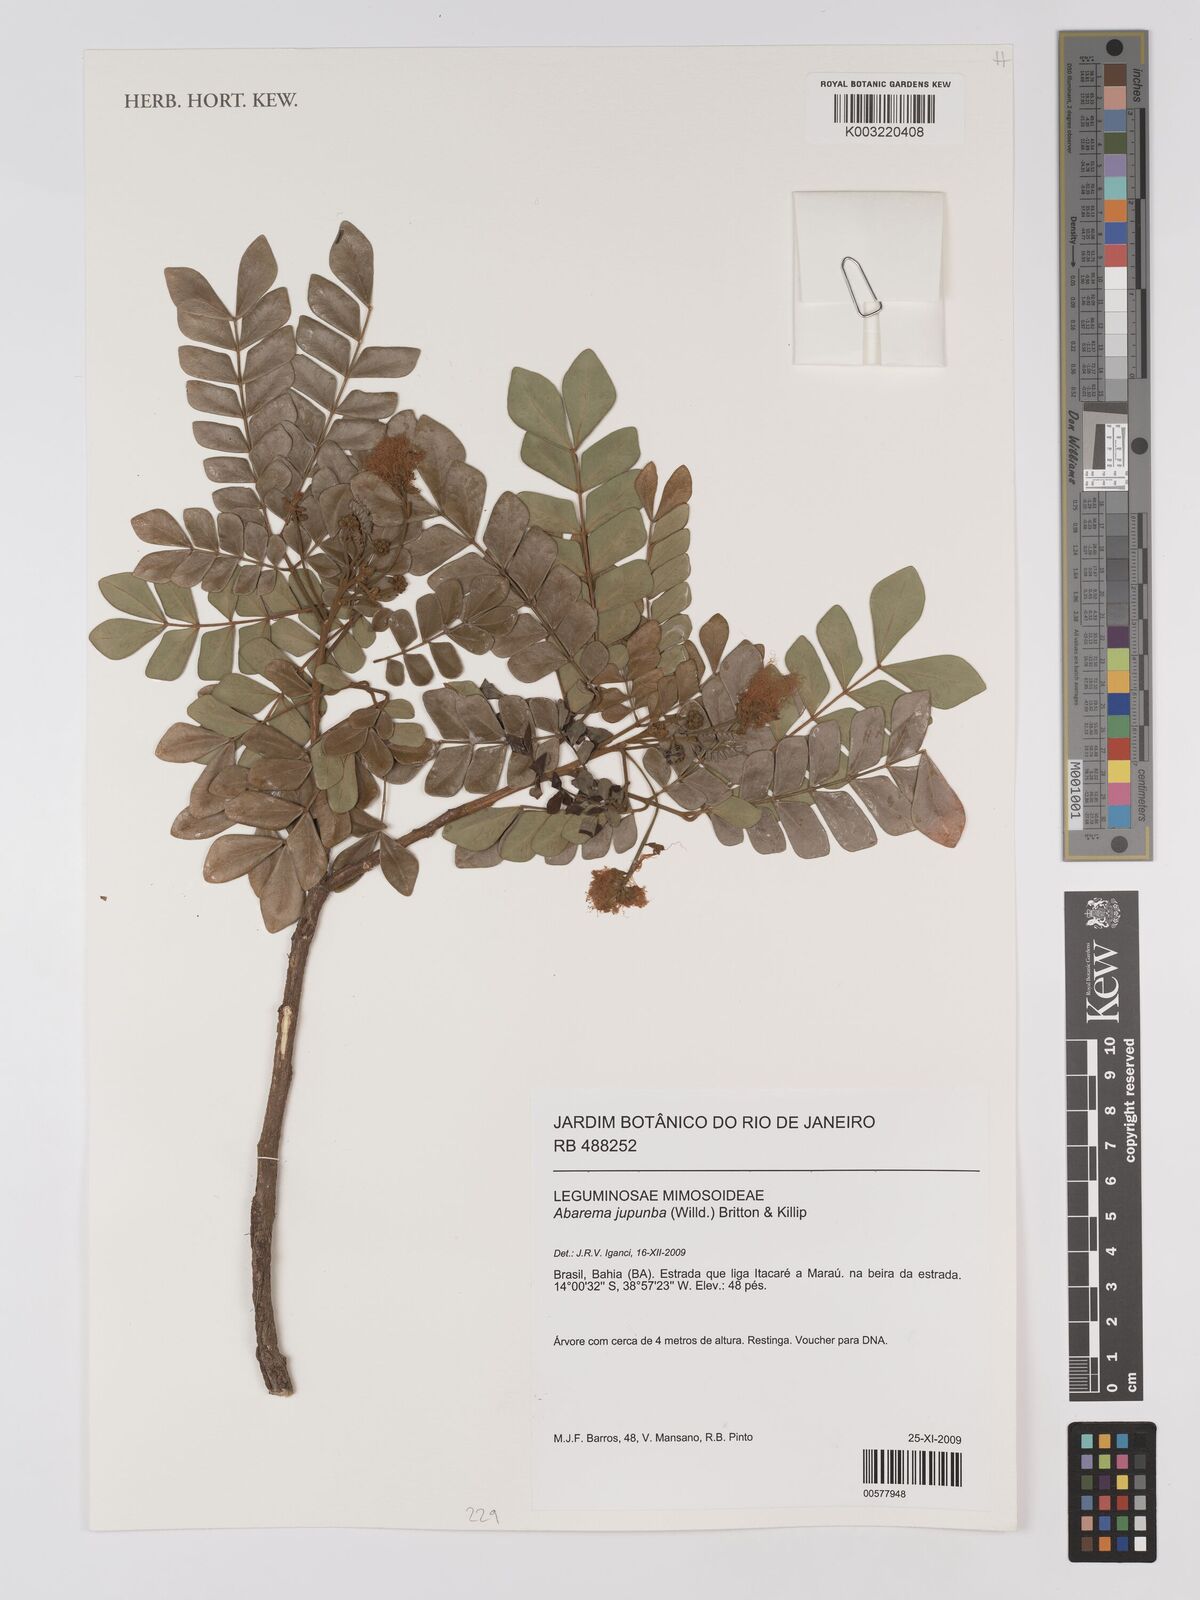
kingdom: Plantae
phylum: Tracheophyta
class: Magnoliopsida
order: Fabales
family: Fabaceae
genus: Jupunba
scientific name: Jupunba trapezifolia
